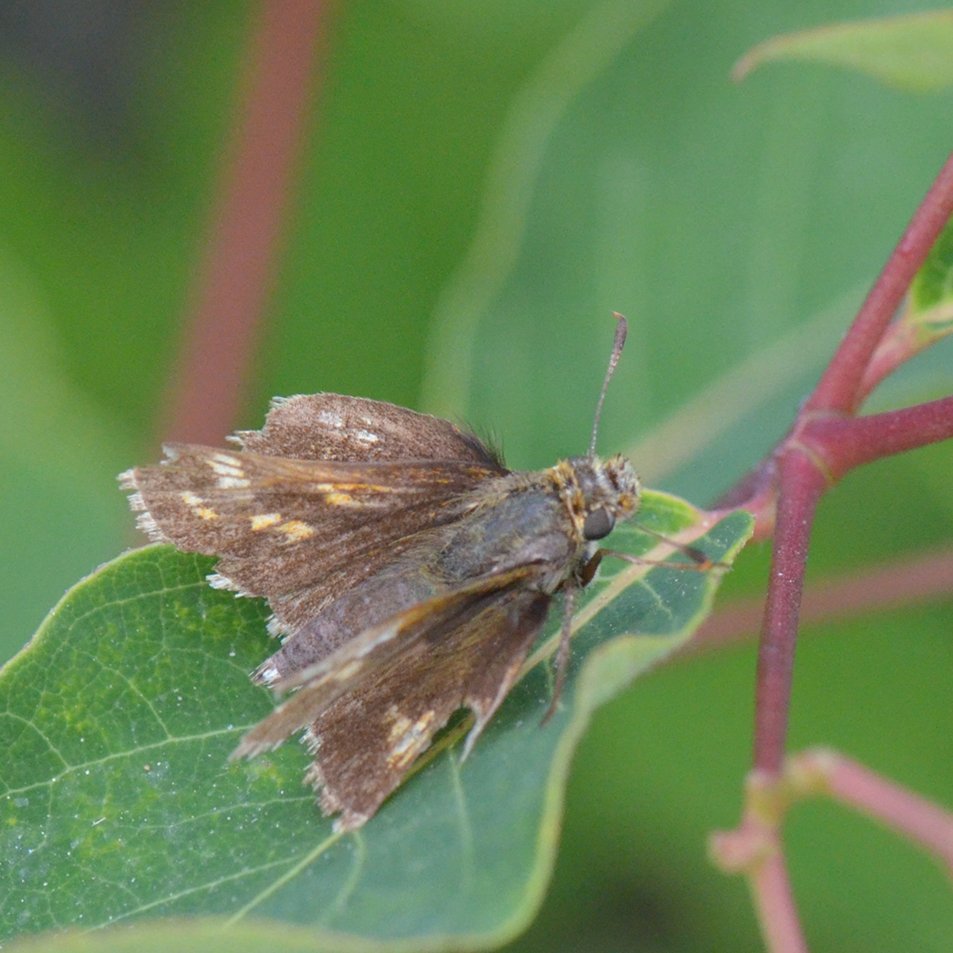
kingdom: Animalia
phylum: Arthropoda
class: Insecta
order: Lepidoptera
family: Hesperiidae
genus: Polites
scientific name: Polites
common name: Long Dash Skipper
